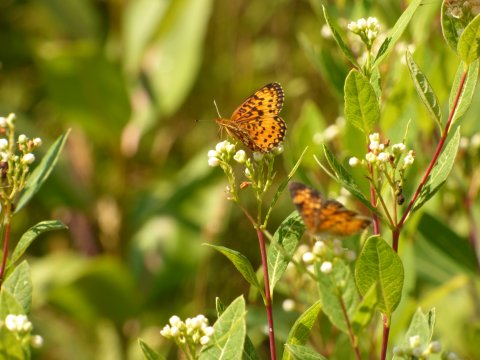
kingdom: Animalia
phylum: Arthropoda
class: Insecta
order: Lepidoptera
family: Nymphalidae
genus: Boloria
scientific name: Boloria selene
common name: Silver-bordered Fritillary
